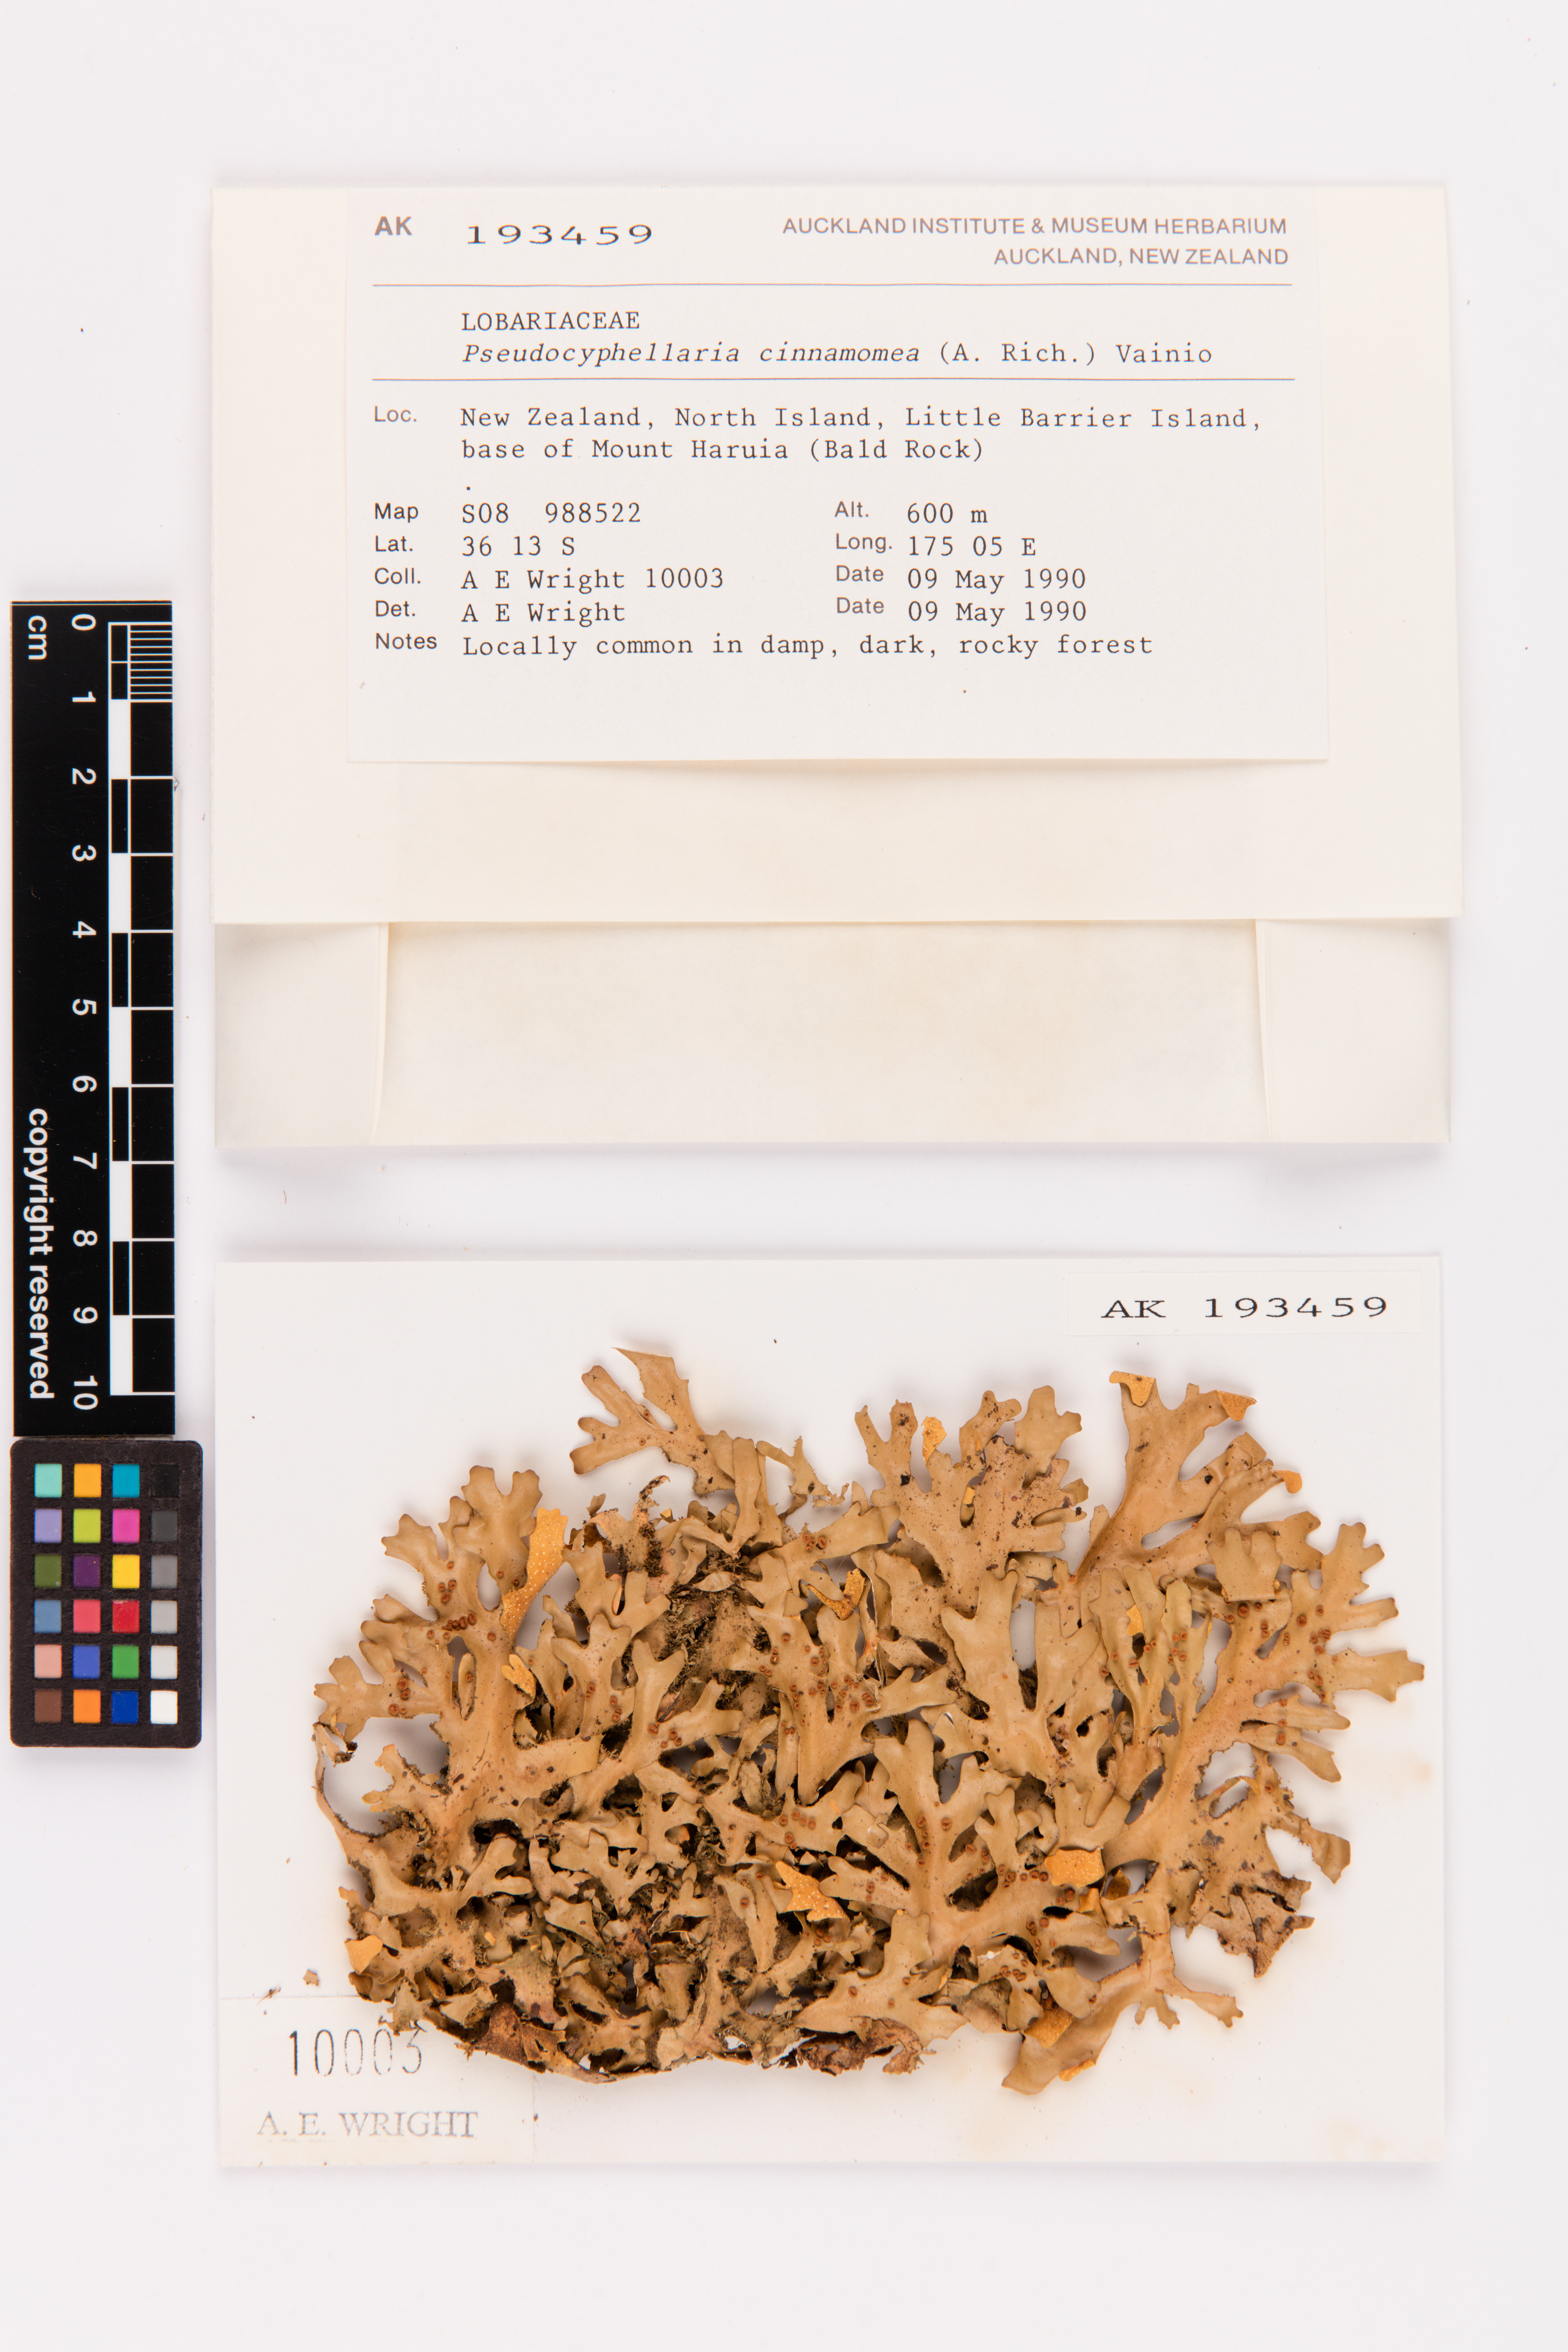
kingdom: Fungi
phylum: Ascomycota
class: Lecanoromycetes
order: Peltigerales
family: Lobariaceae
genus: Pseudocyphellaria
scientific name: Pseudocyphellaria cinnamomea
